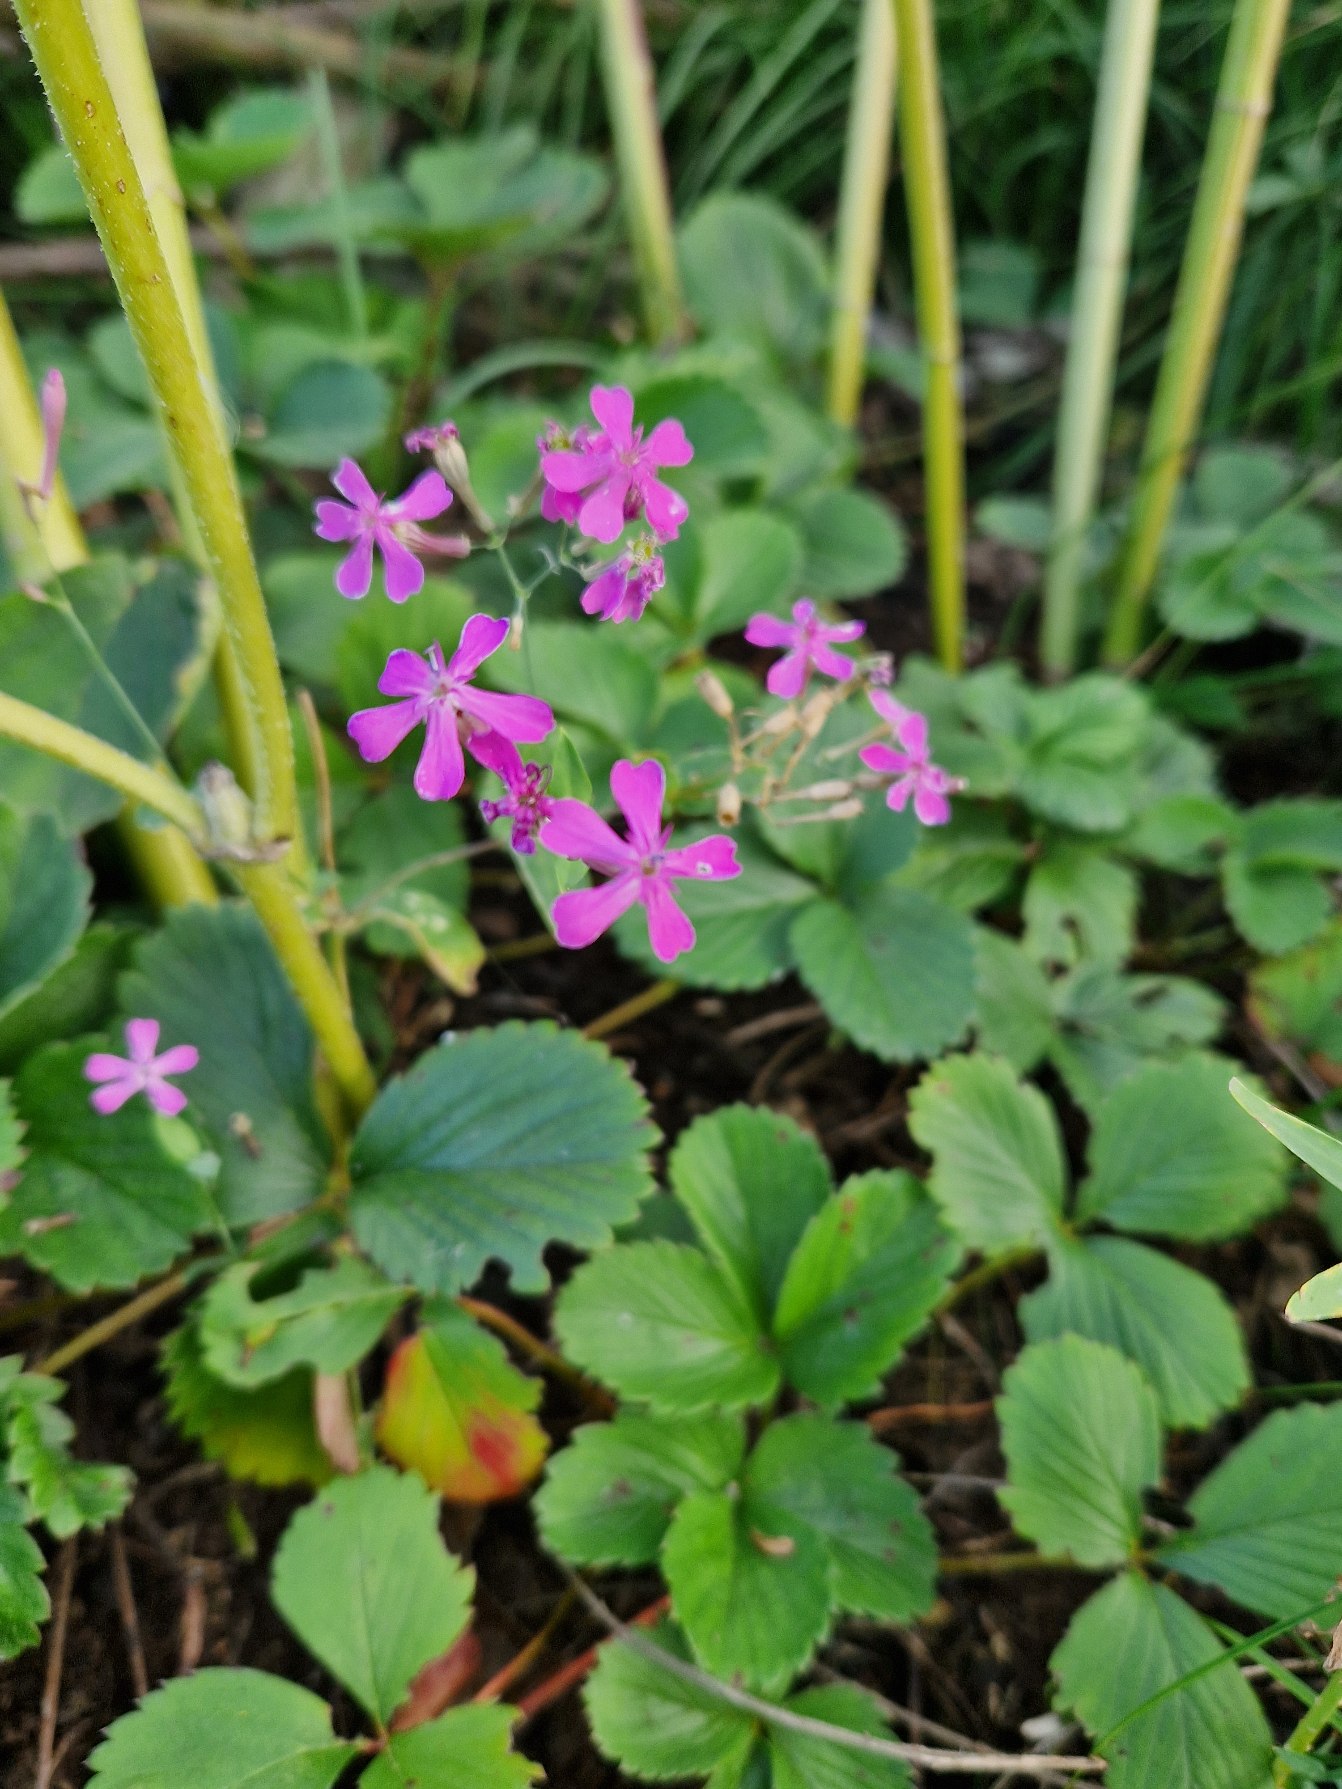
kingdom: Plantae
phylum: Tracheophyta
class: Magnoliopsida
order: Caryophyllales
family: Caryophyllaceae
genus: Atocion
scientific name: Atocion armeria
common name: Knippe-limurt
